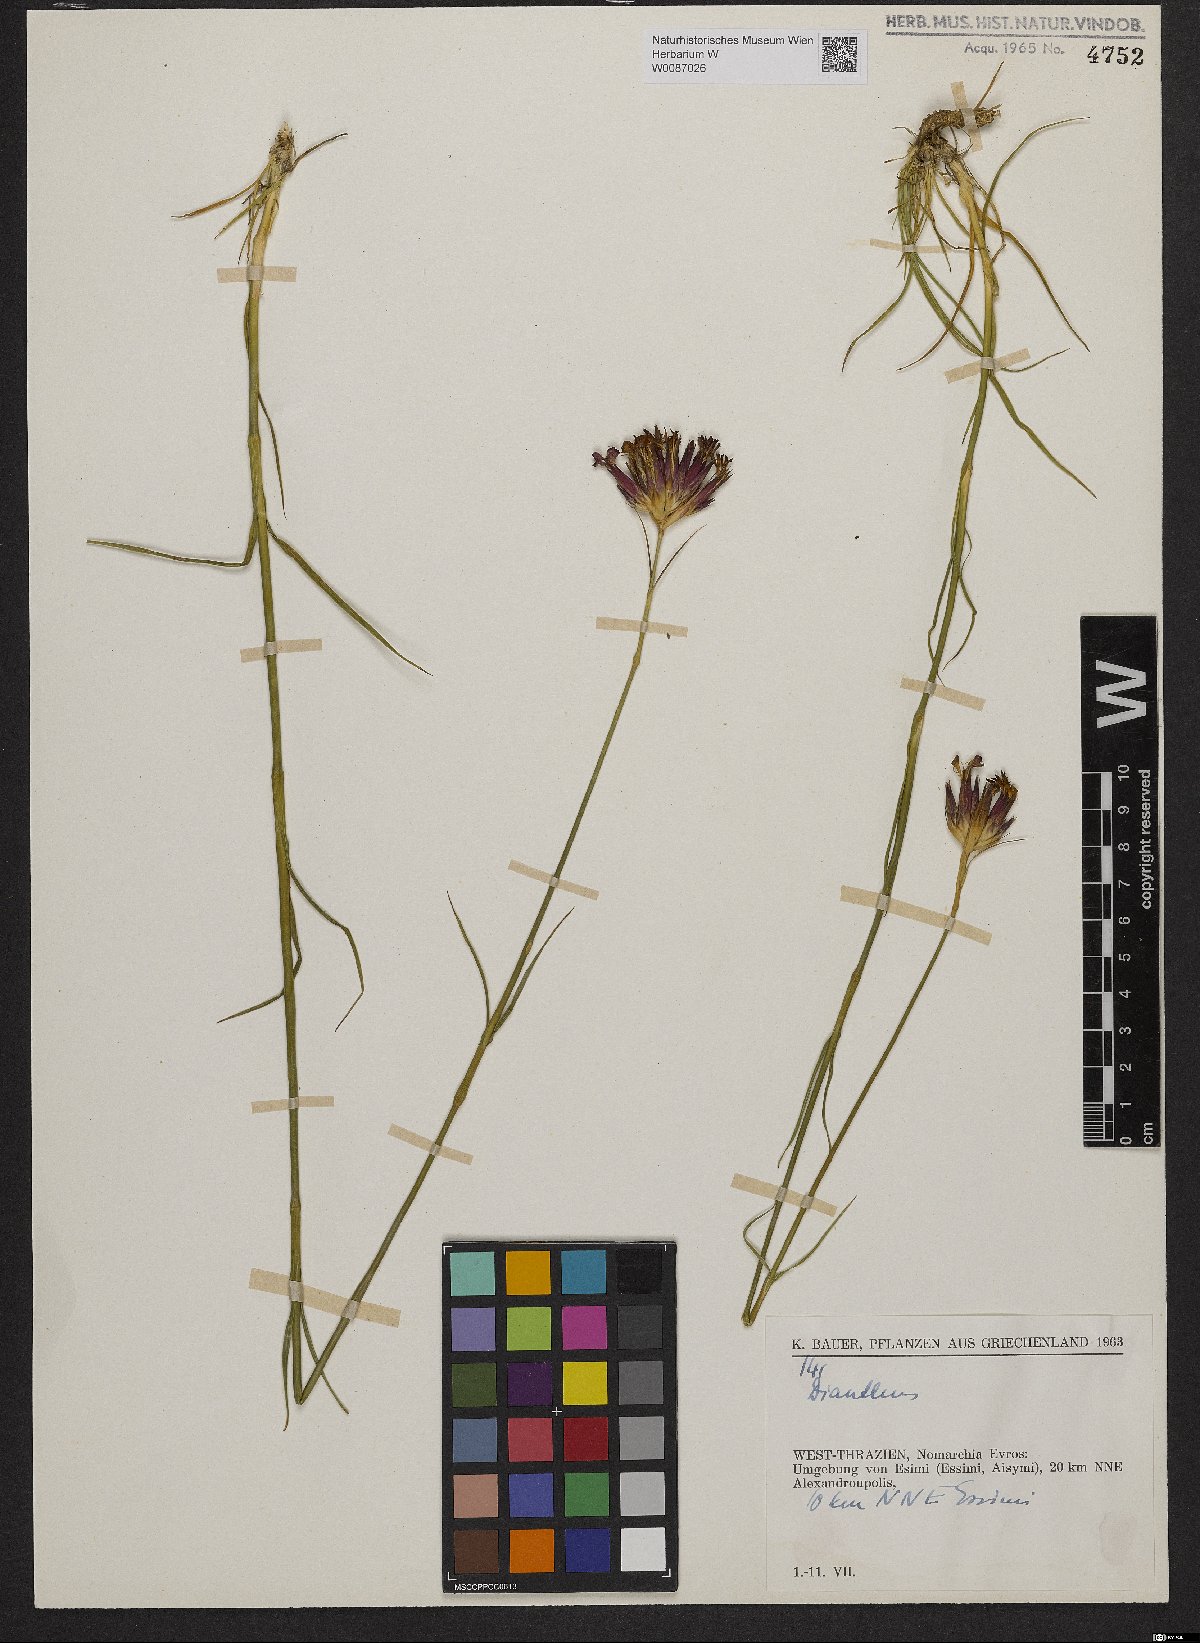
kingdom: Plantae
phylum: Tracheophyta
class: Magnoliopsida
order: Caryophyllales
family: Caryophyllaceae
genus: Dianthus
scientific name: Dianthus cruentus
